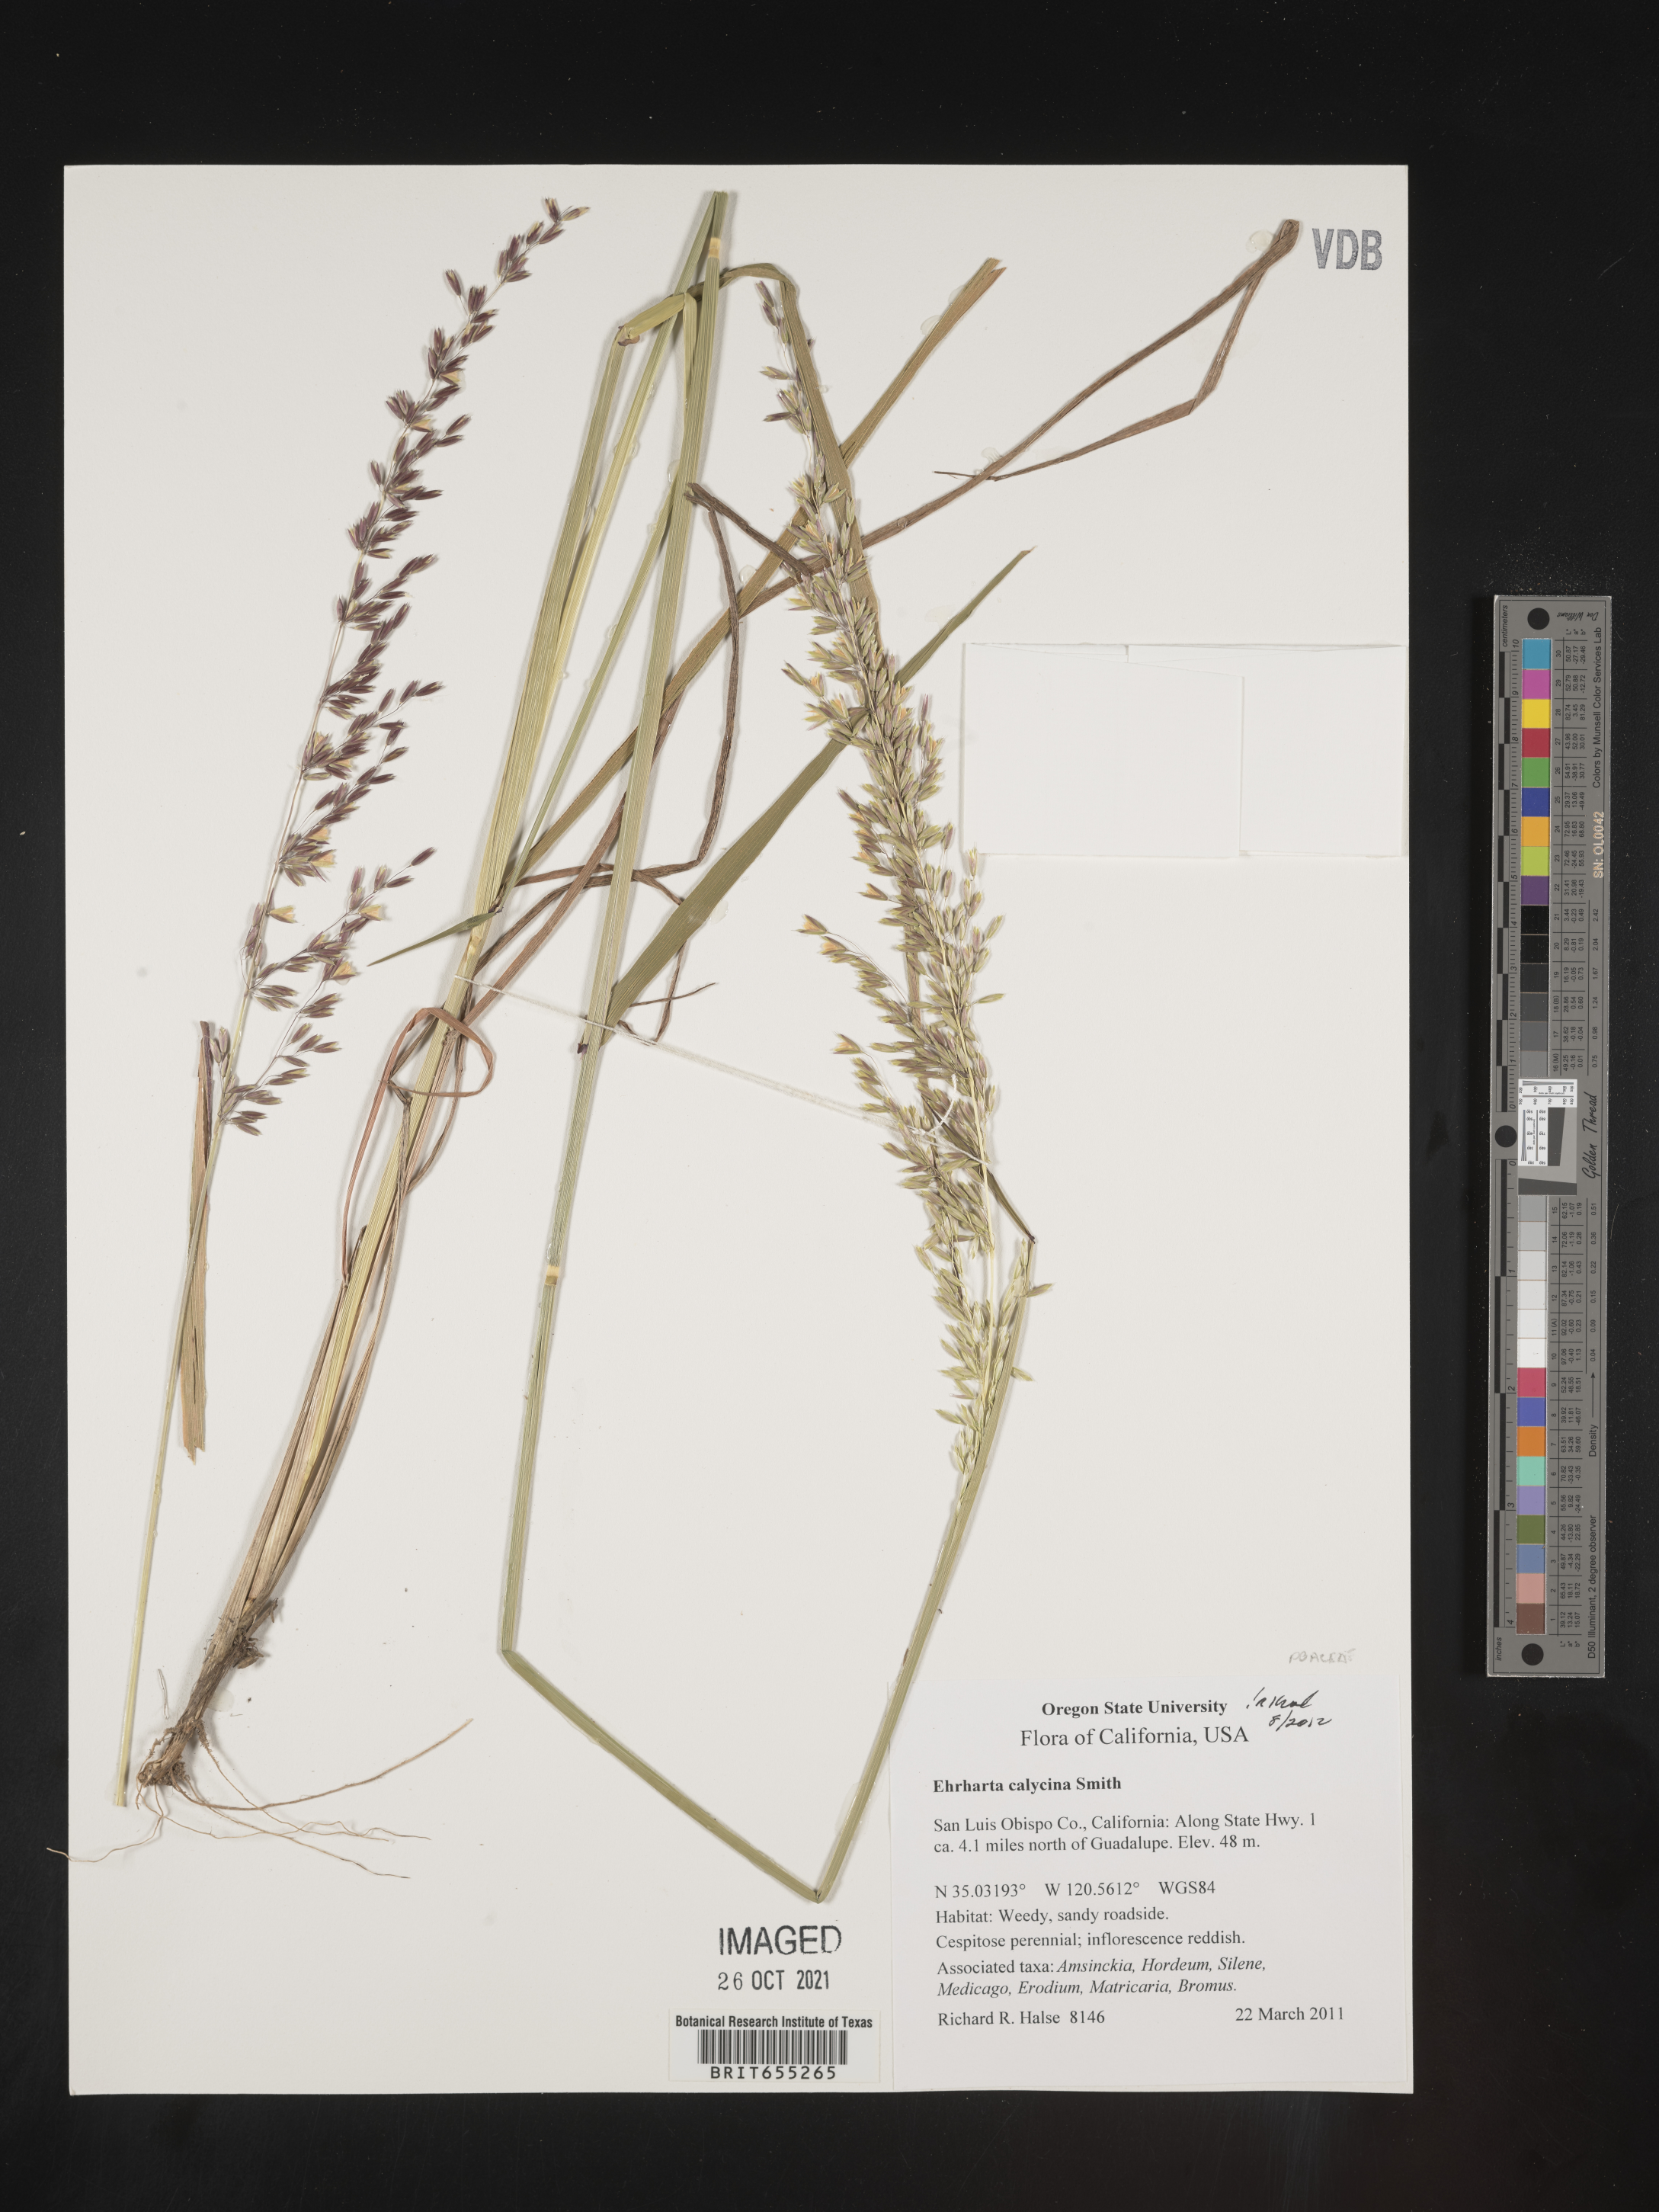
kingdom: Plantae
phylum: Tracheophyta
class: Liliopsida
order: Poales
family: Poaceae
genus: Ehrharta
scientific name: Ehrharta
